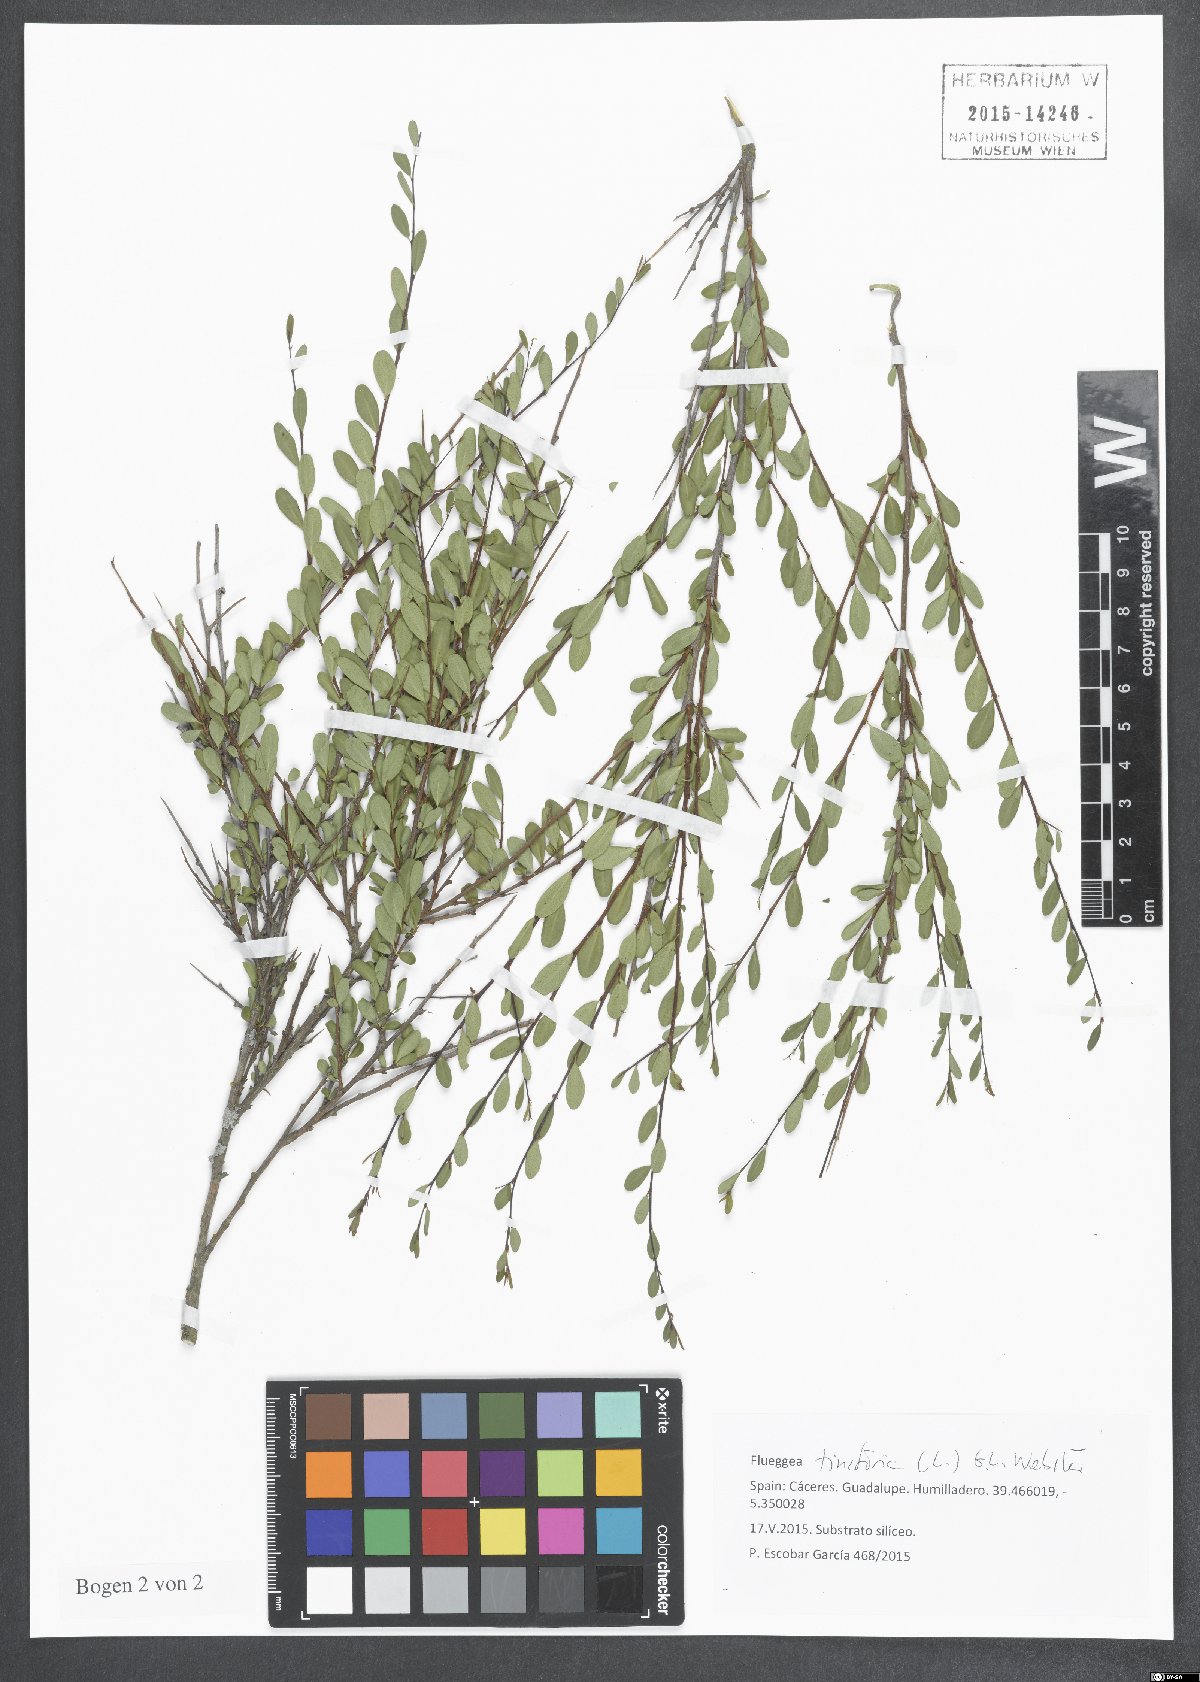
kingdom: Plantae
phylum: Tracheophyta
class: Magnoliopsida
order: Malpighiales
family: Phyllanthaceae
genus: Flueggea
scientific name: Flueggea tinctoria
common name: Tamujo
